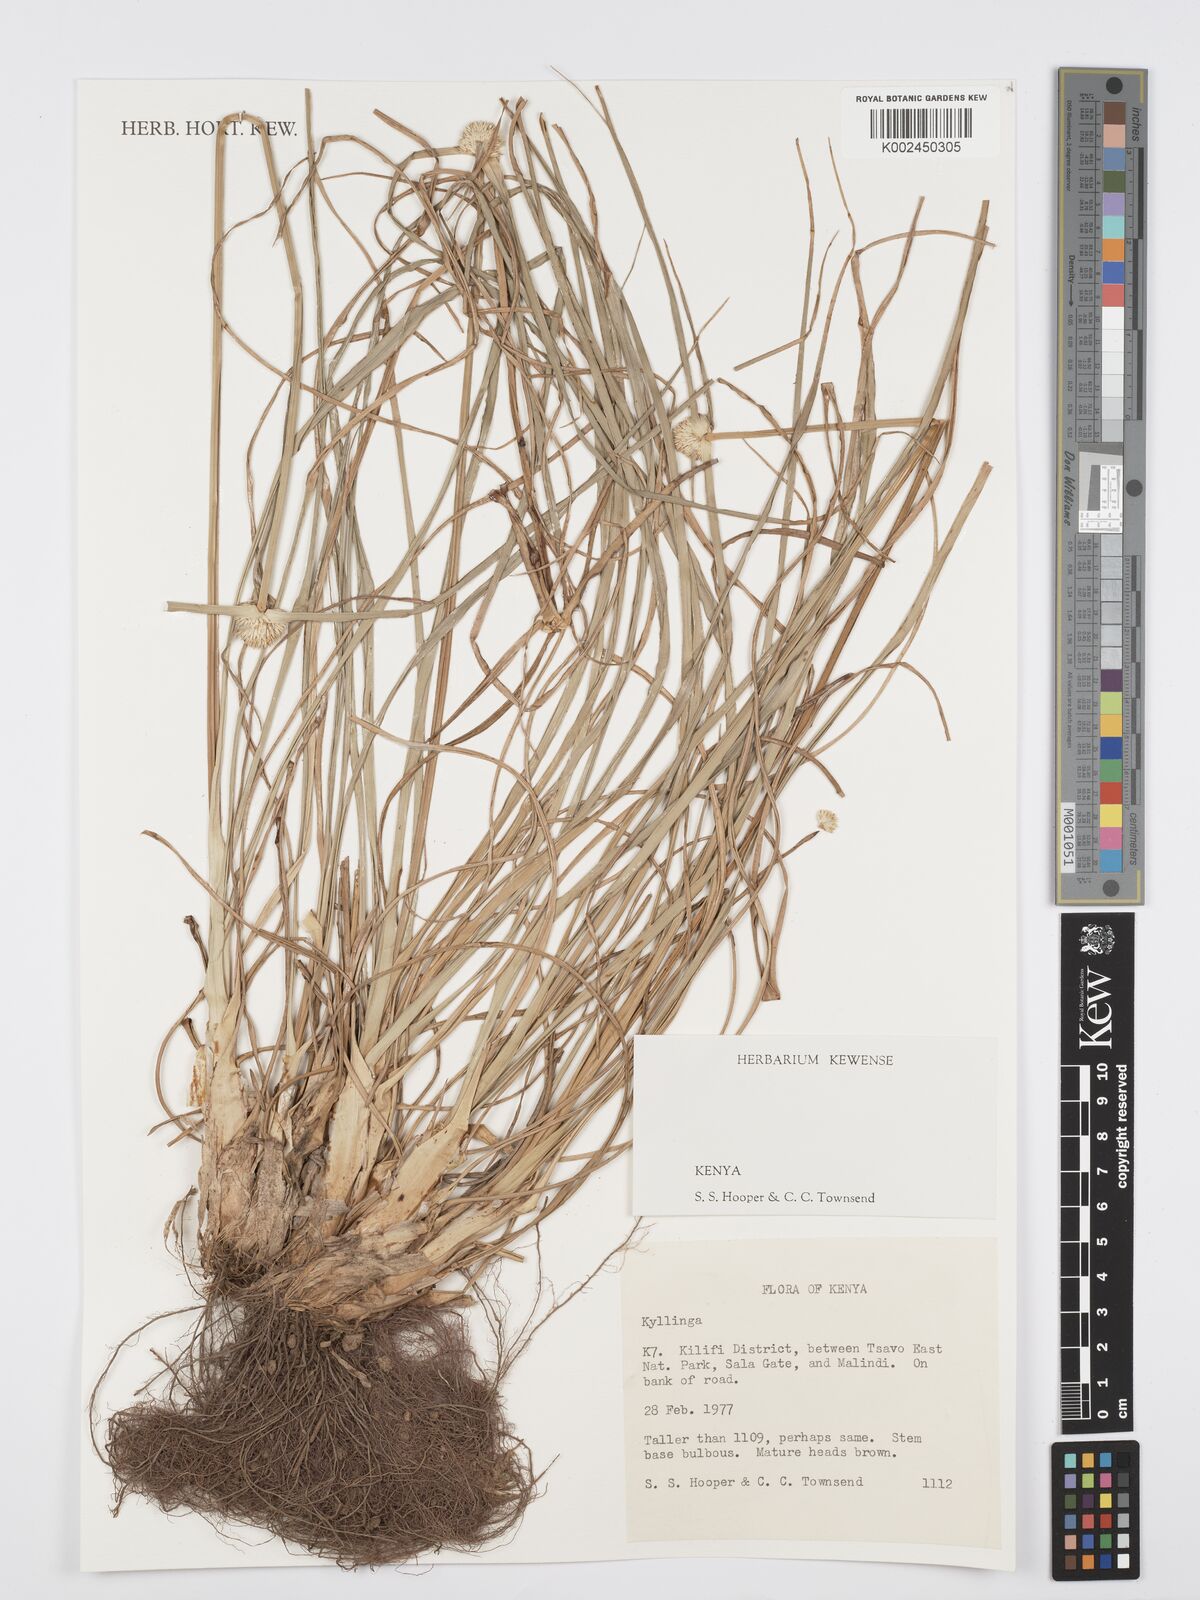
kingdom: Plantae
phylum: Tracheophyta
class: Liliopsida
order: Poales
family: Cyperaceae
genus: Cyperus
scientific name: Cyperus
